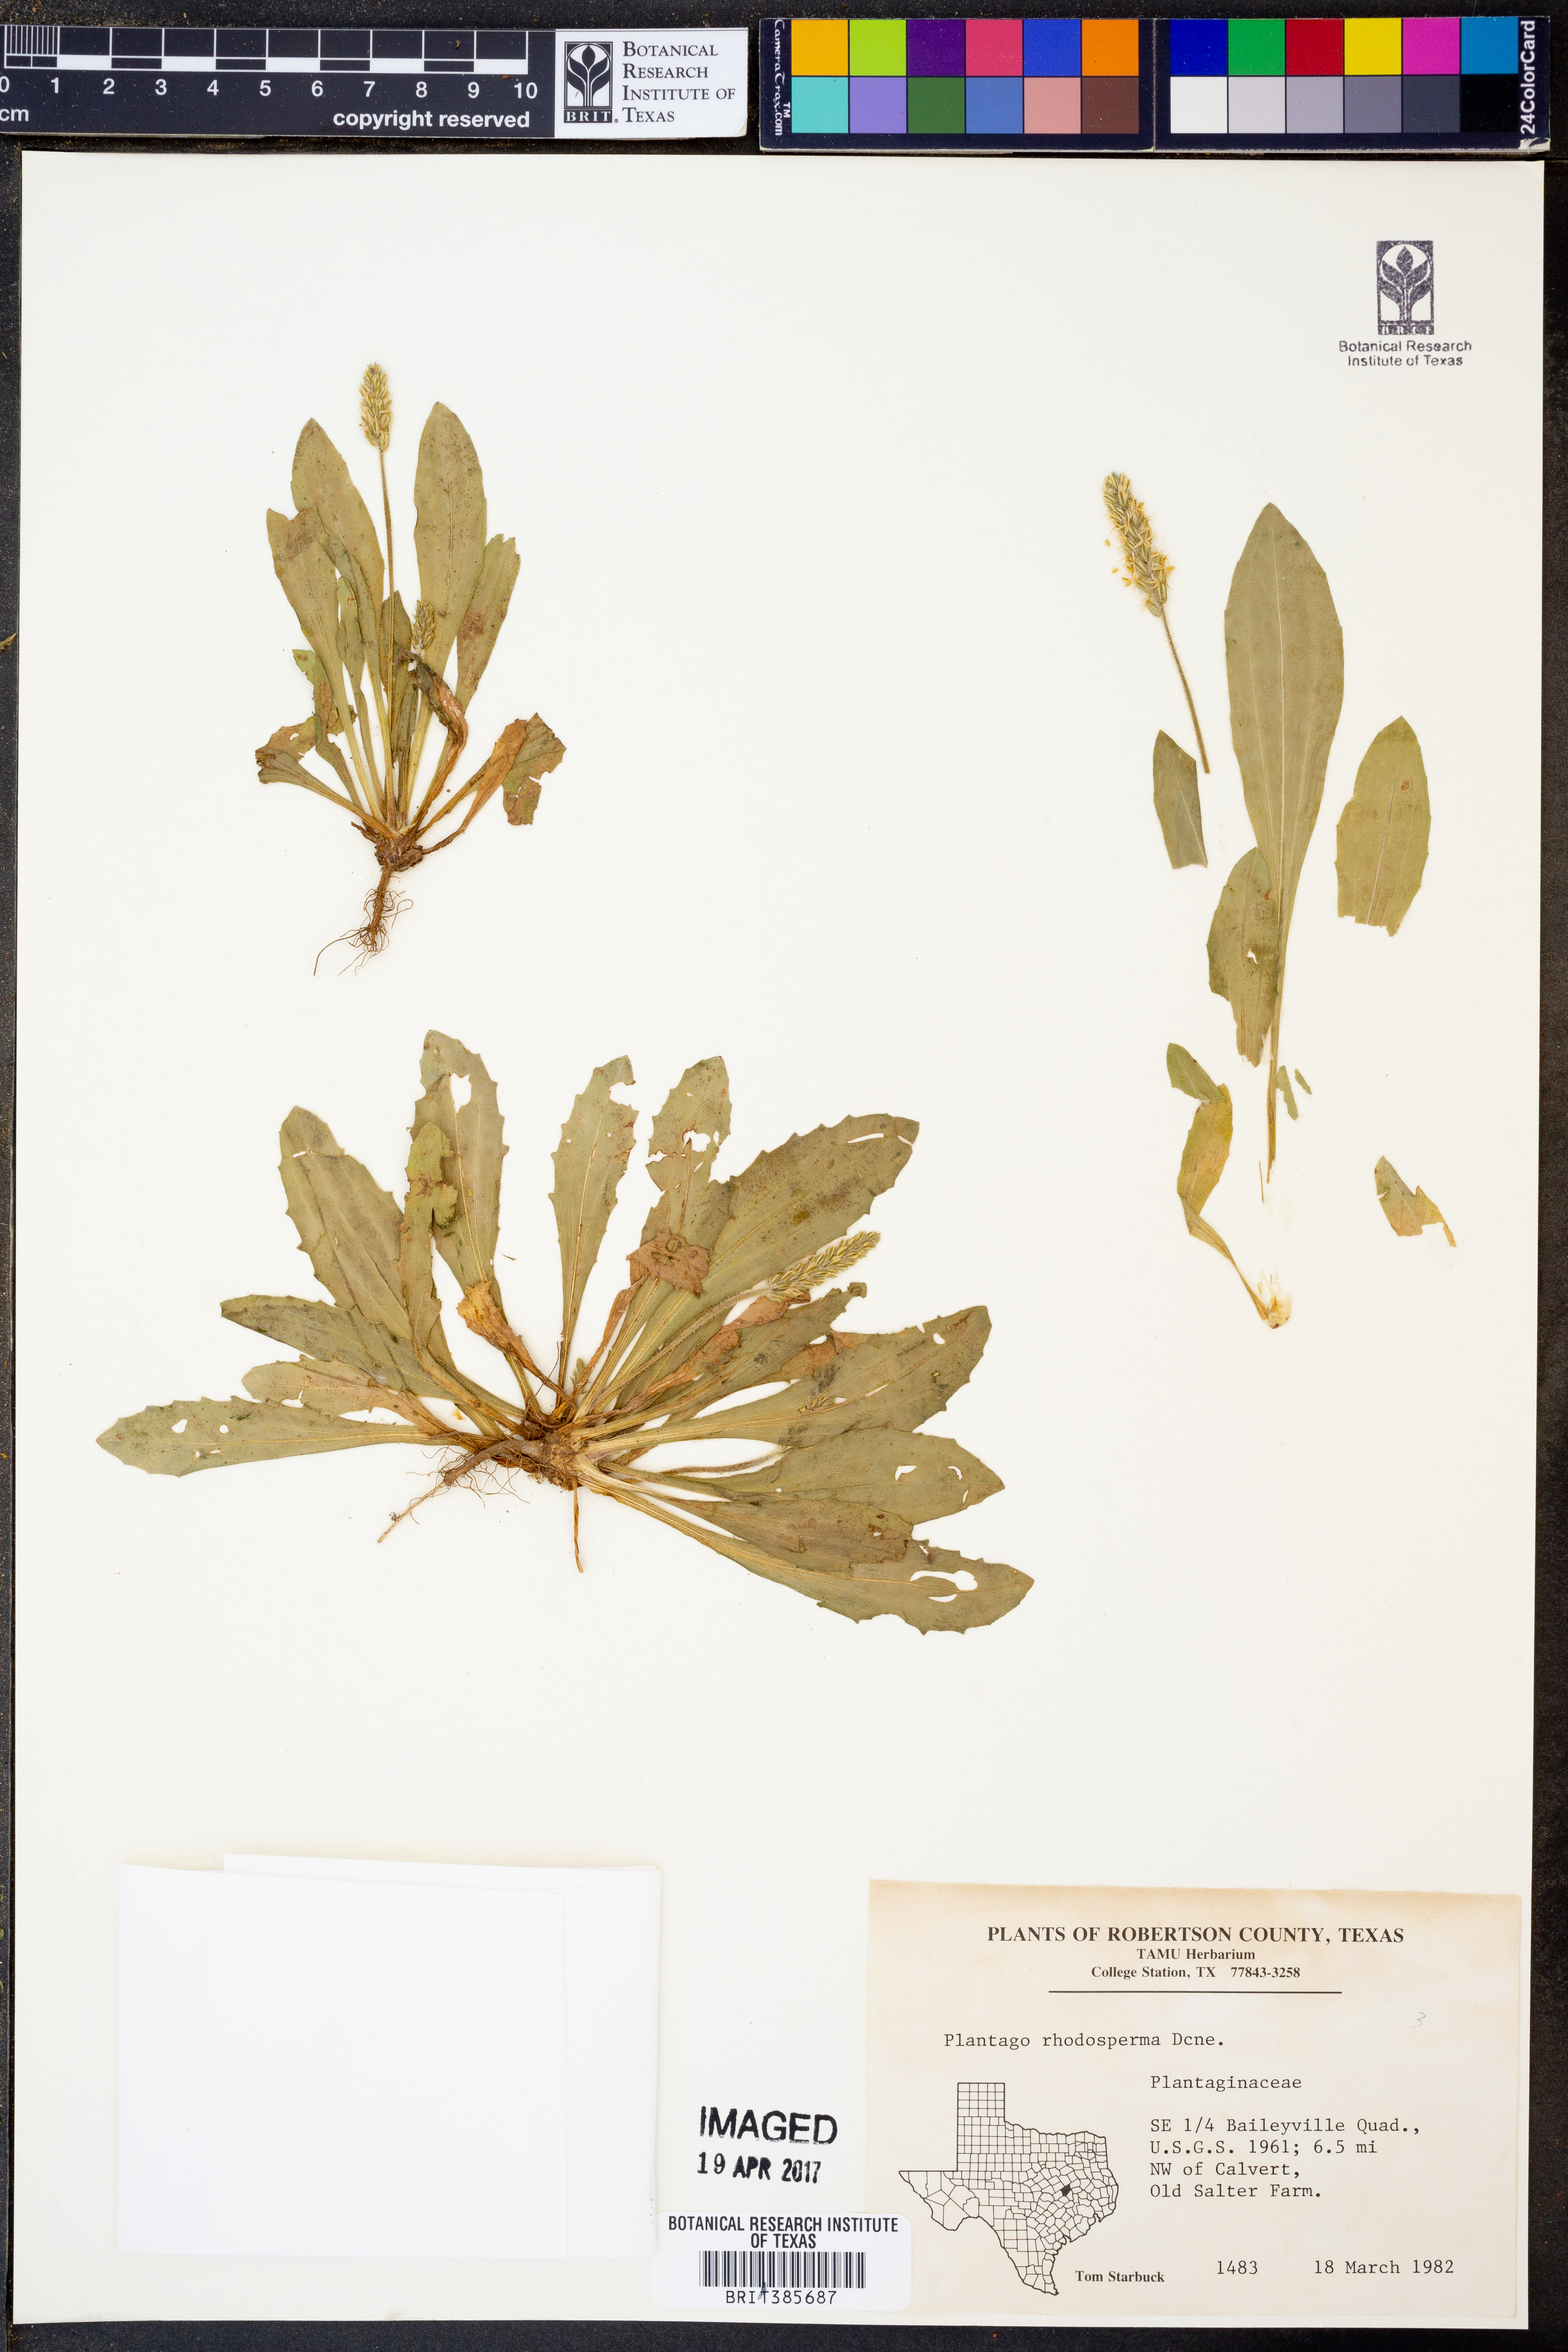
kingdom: Plantae
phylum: Tracheophyta
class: Magnoliopsida
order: Lamiales
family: Plantaginaceae
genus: Plantago
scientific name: Plantago rhodosperma
